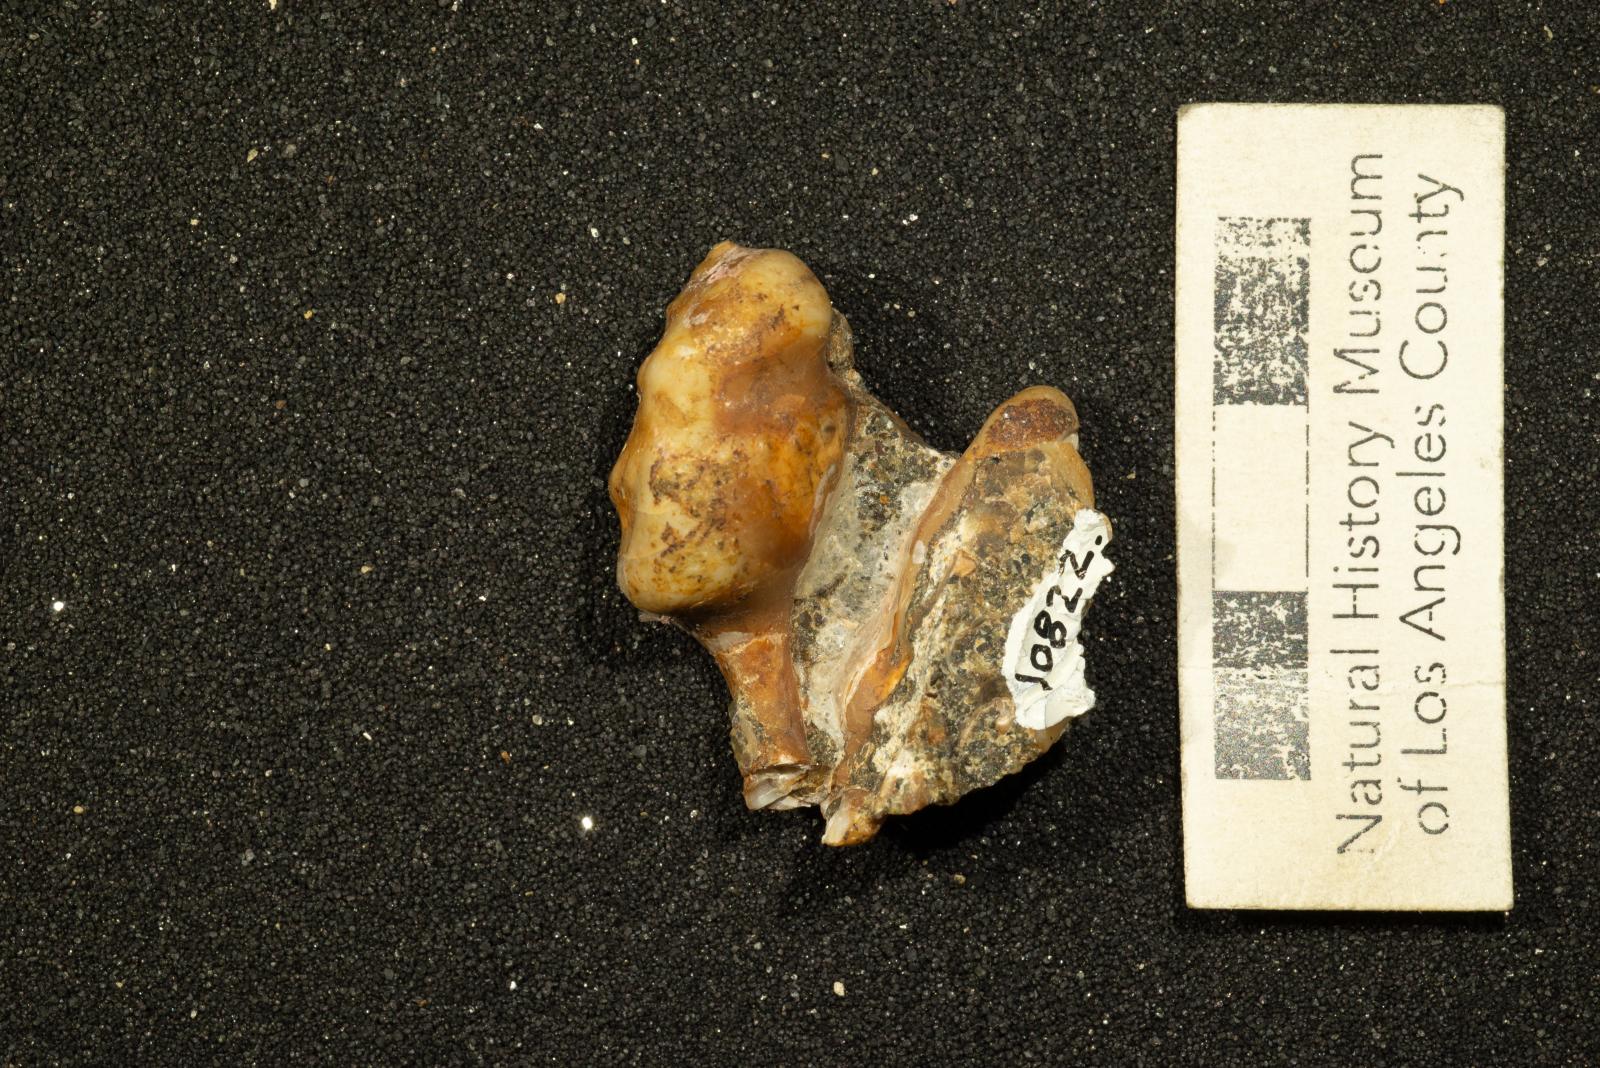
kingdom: Animalia
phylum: Mollusca
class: Gastropoda
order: Littorinimorpha
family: Aporrhaidae
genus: Pyktes
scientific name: Pyktes aspris
